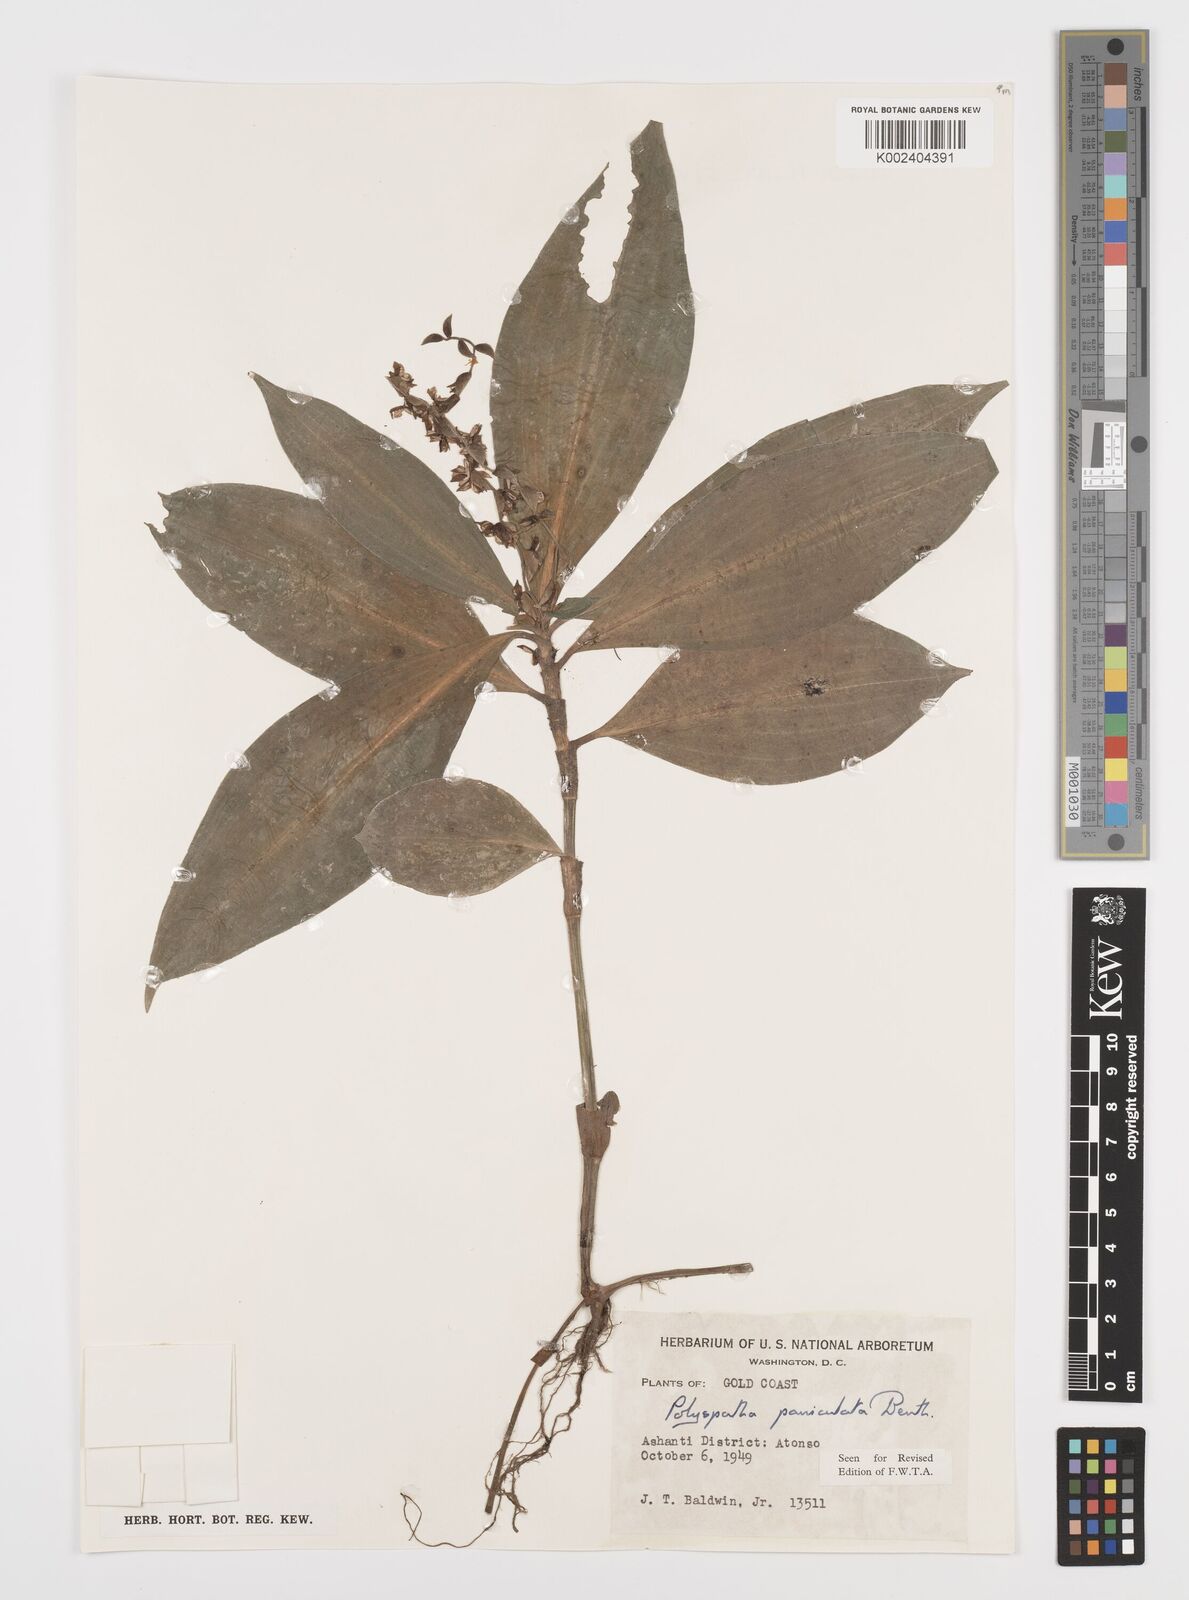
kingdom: Plantae
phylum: Tracheophyta
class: Liliopsida
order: Commelinales
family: Commelinaceae
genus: Polyspatha
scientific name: Polyspatha paniculata
